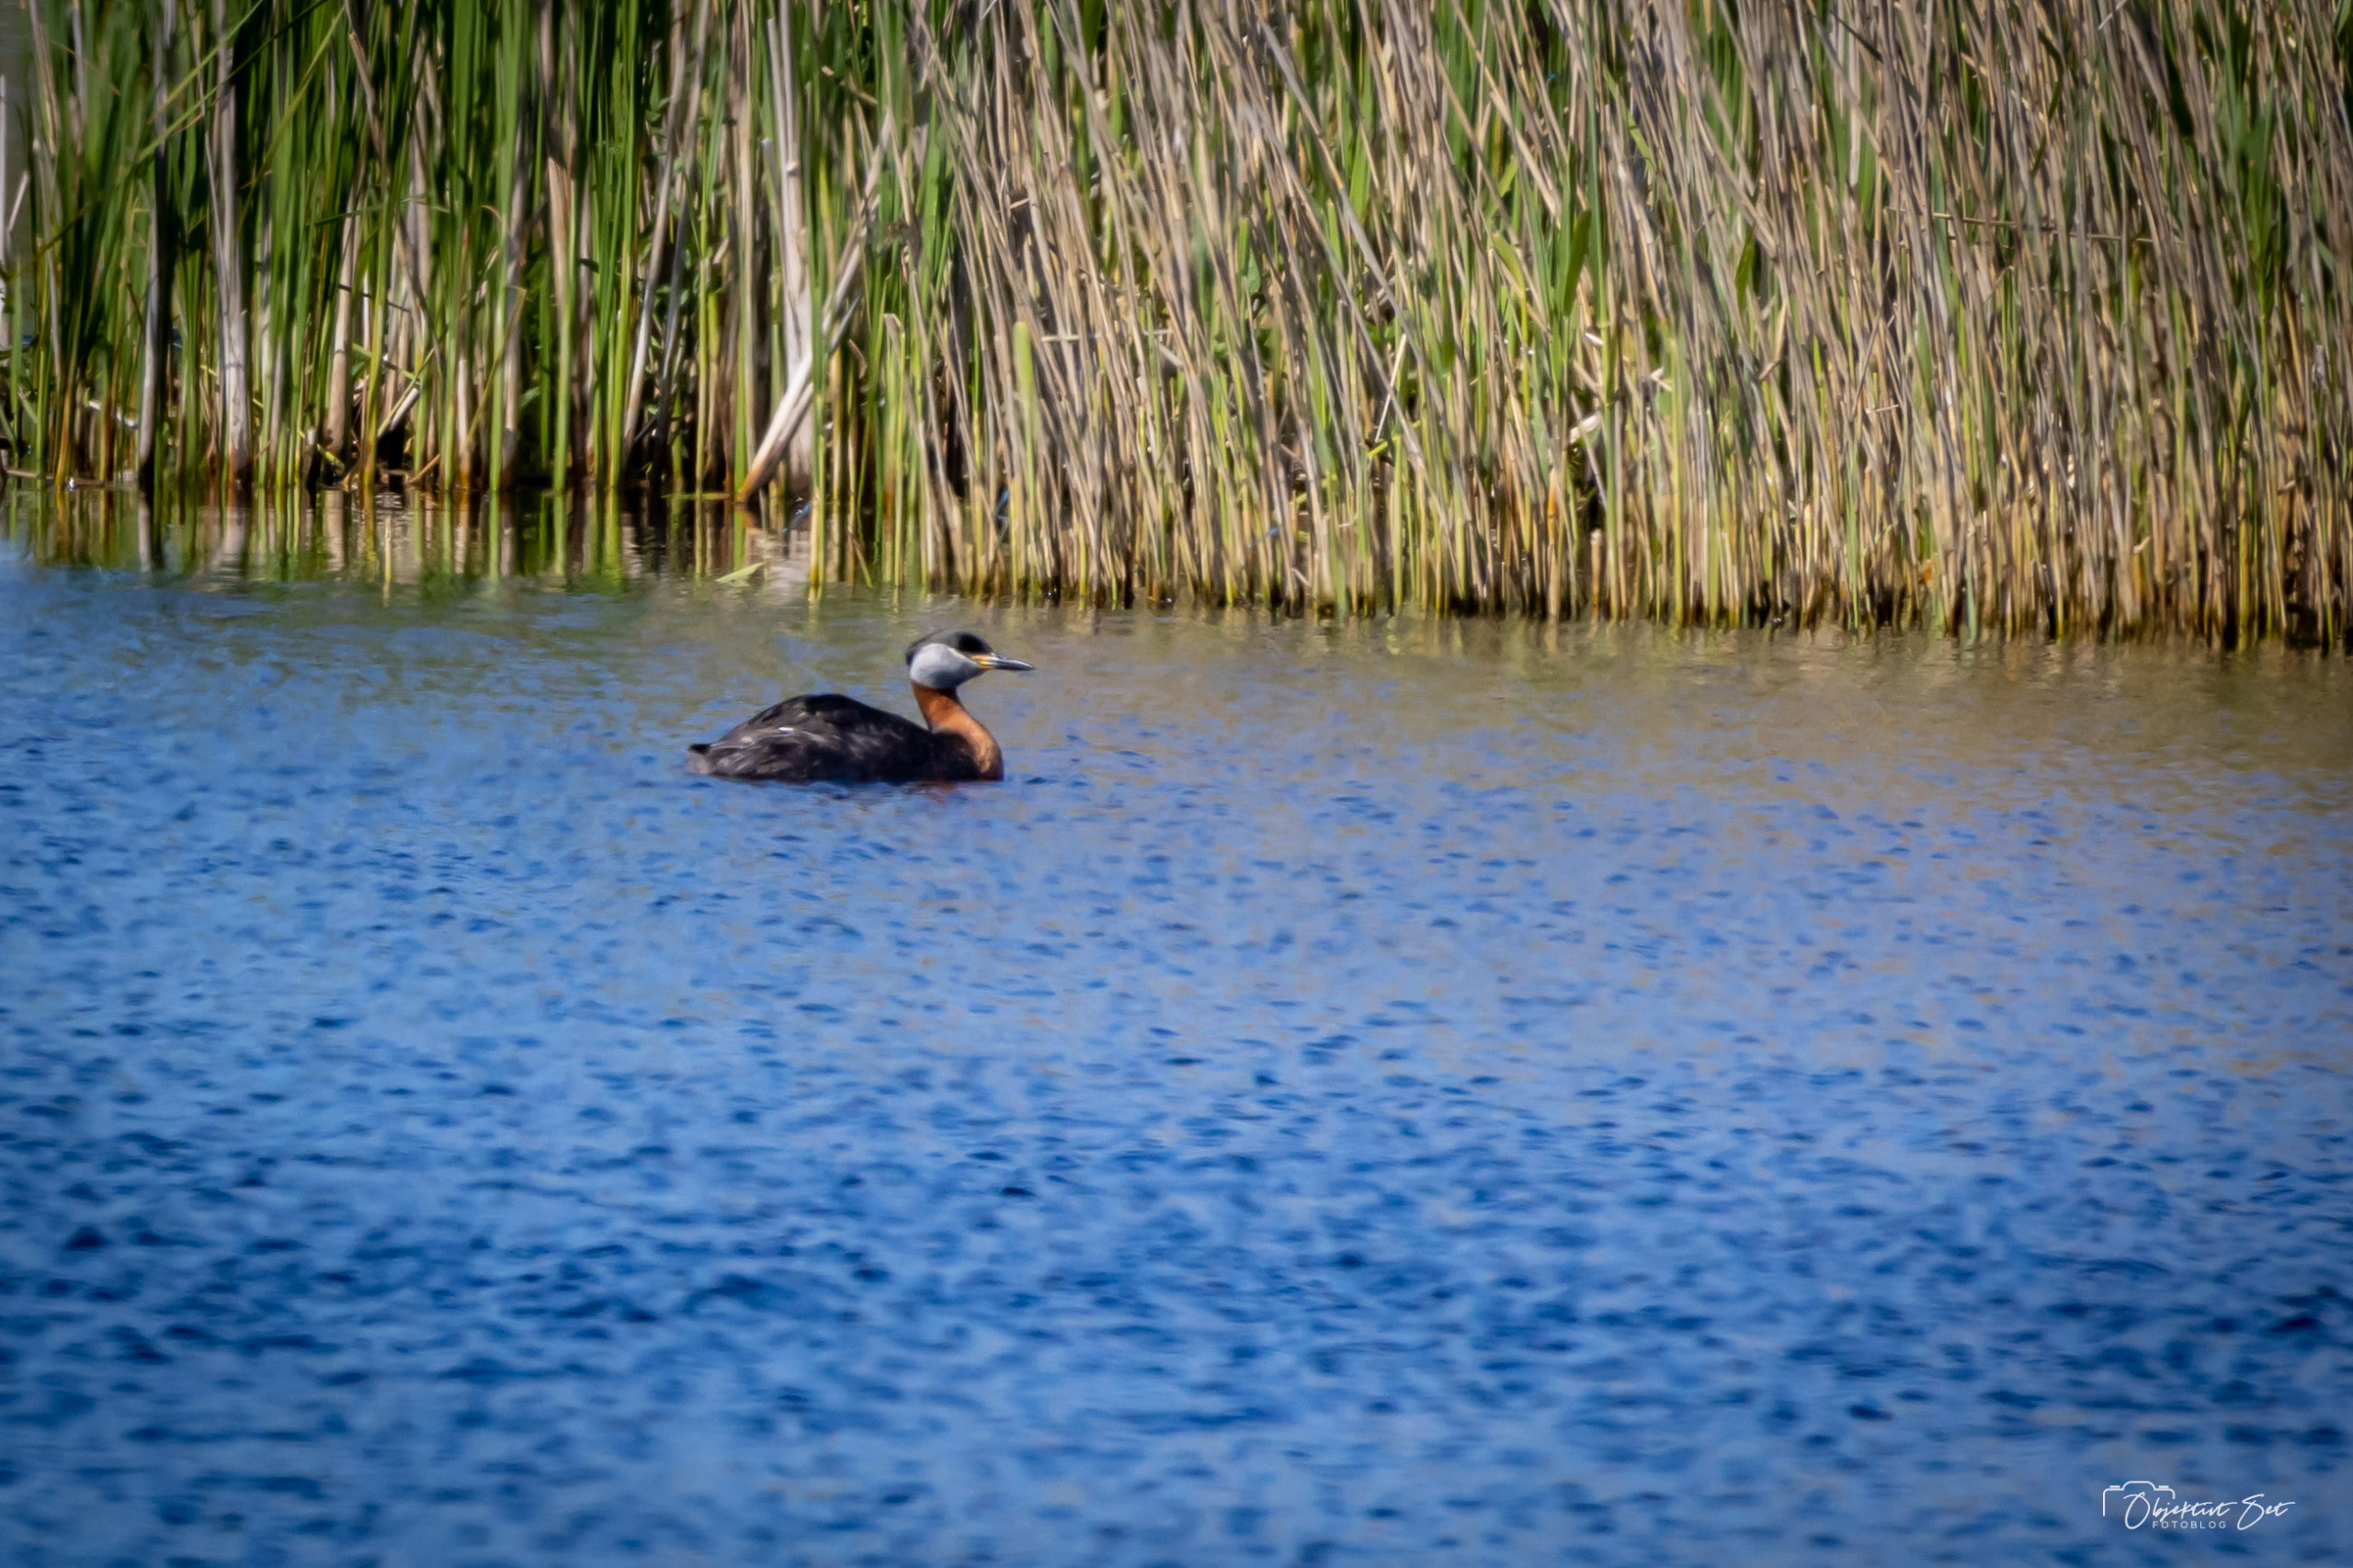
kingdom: Animalia
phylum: Chordata
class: Aves
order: Podicipediformes
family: Podicipedidae
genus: Podiceps
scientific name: Podiceps grisegena
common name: Gråstrubet lappedykker
